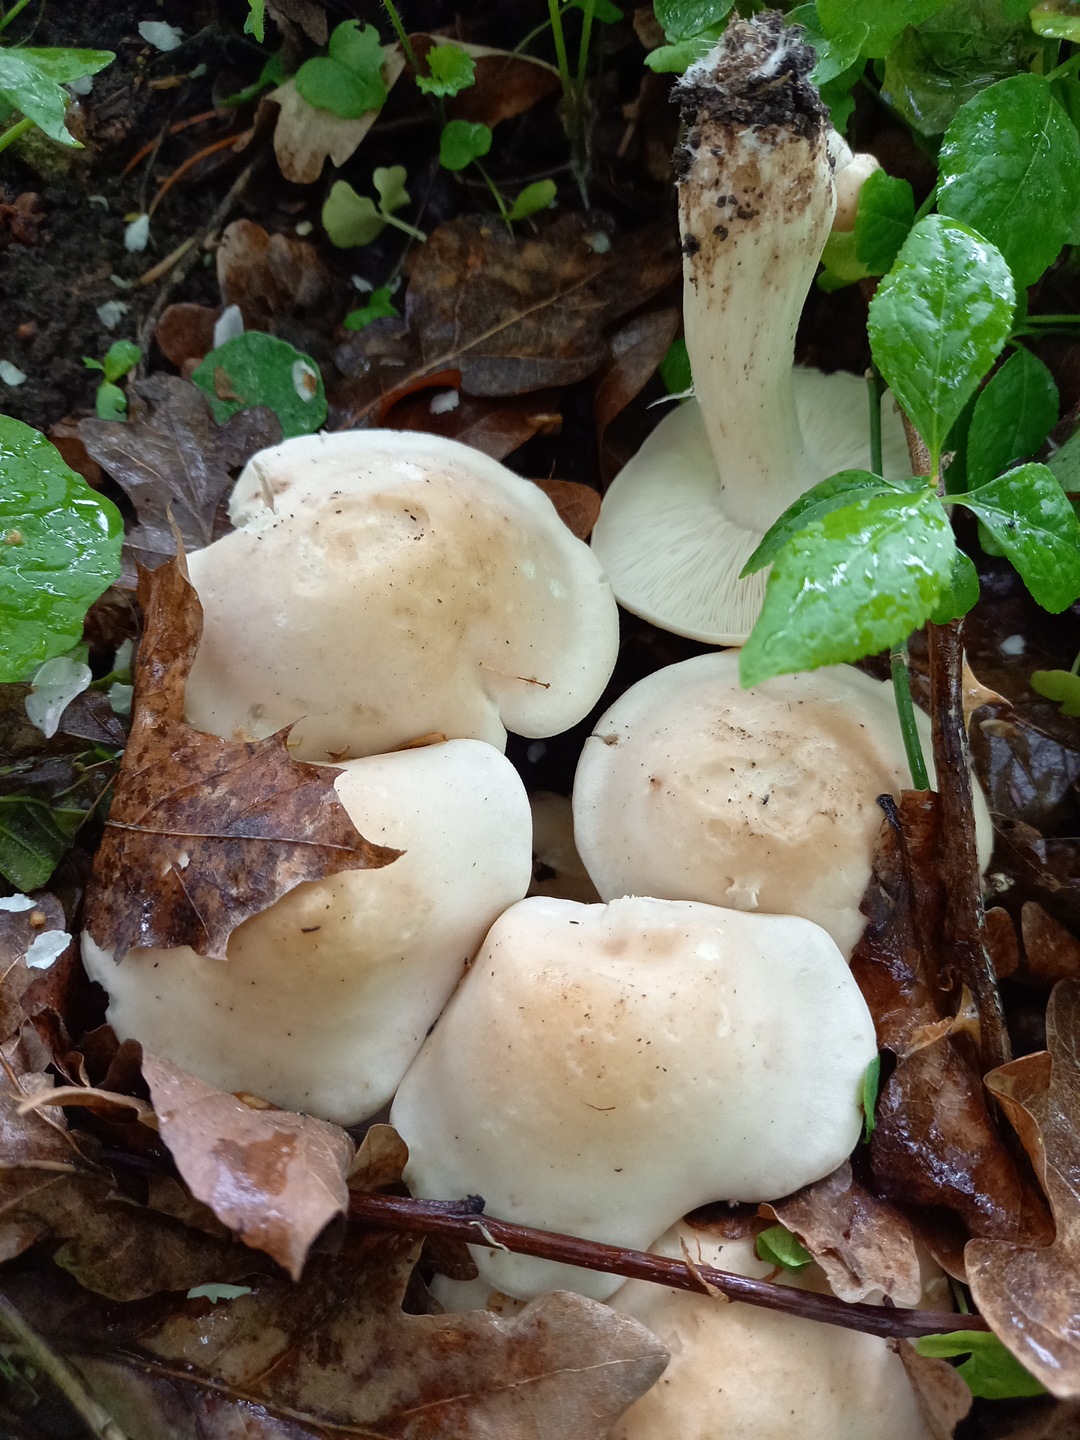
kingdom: Fungi
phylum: Basidiomycota
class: Agaricomycetes
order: Agaricales
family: Lyophyllaceae
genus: Calocybe
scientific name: Calocybe gambosa
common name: vårmusseron
